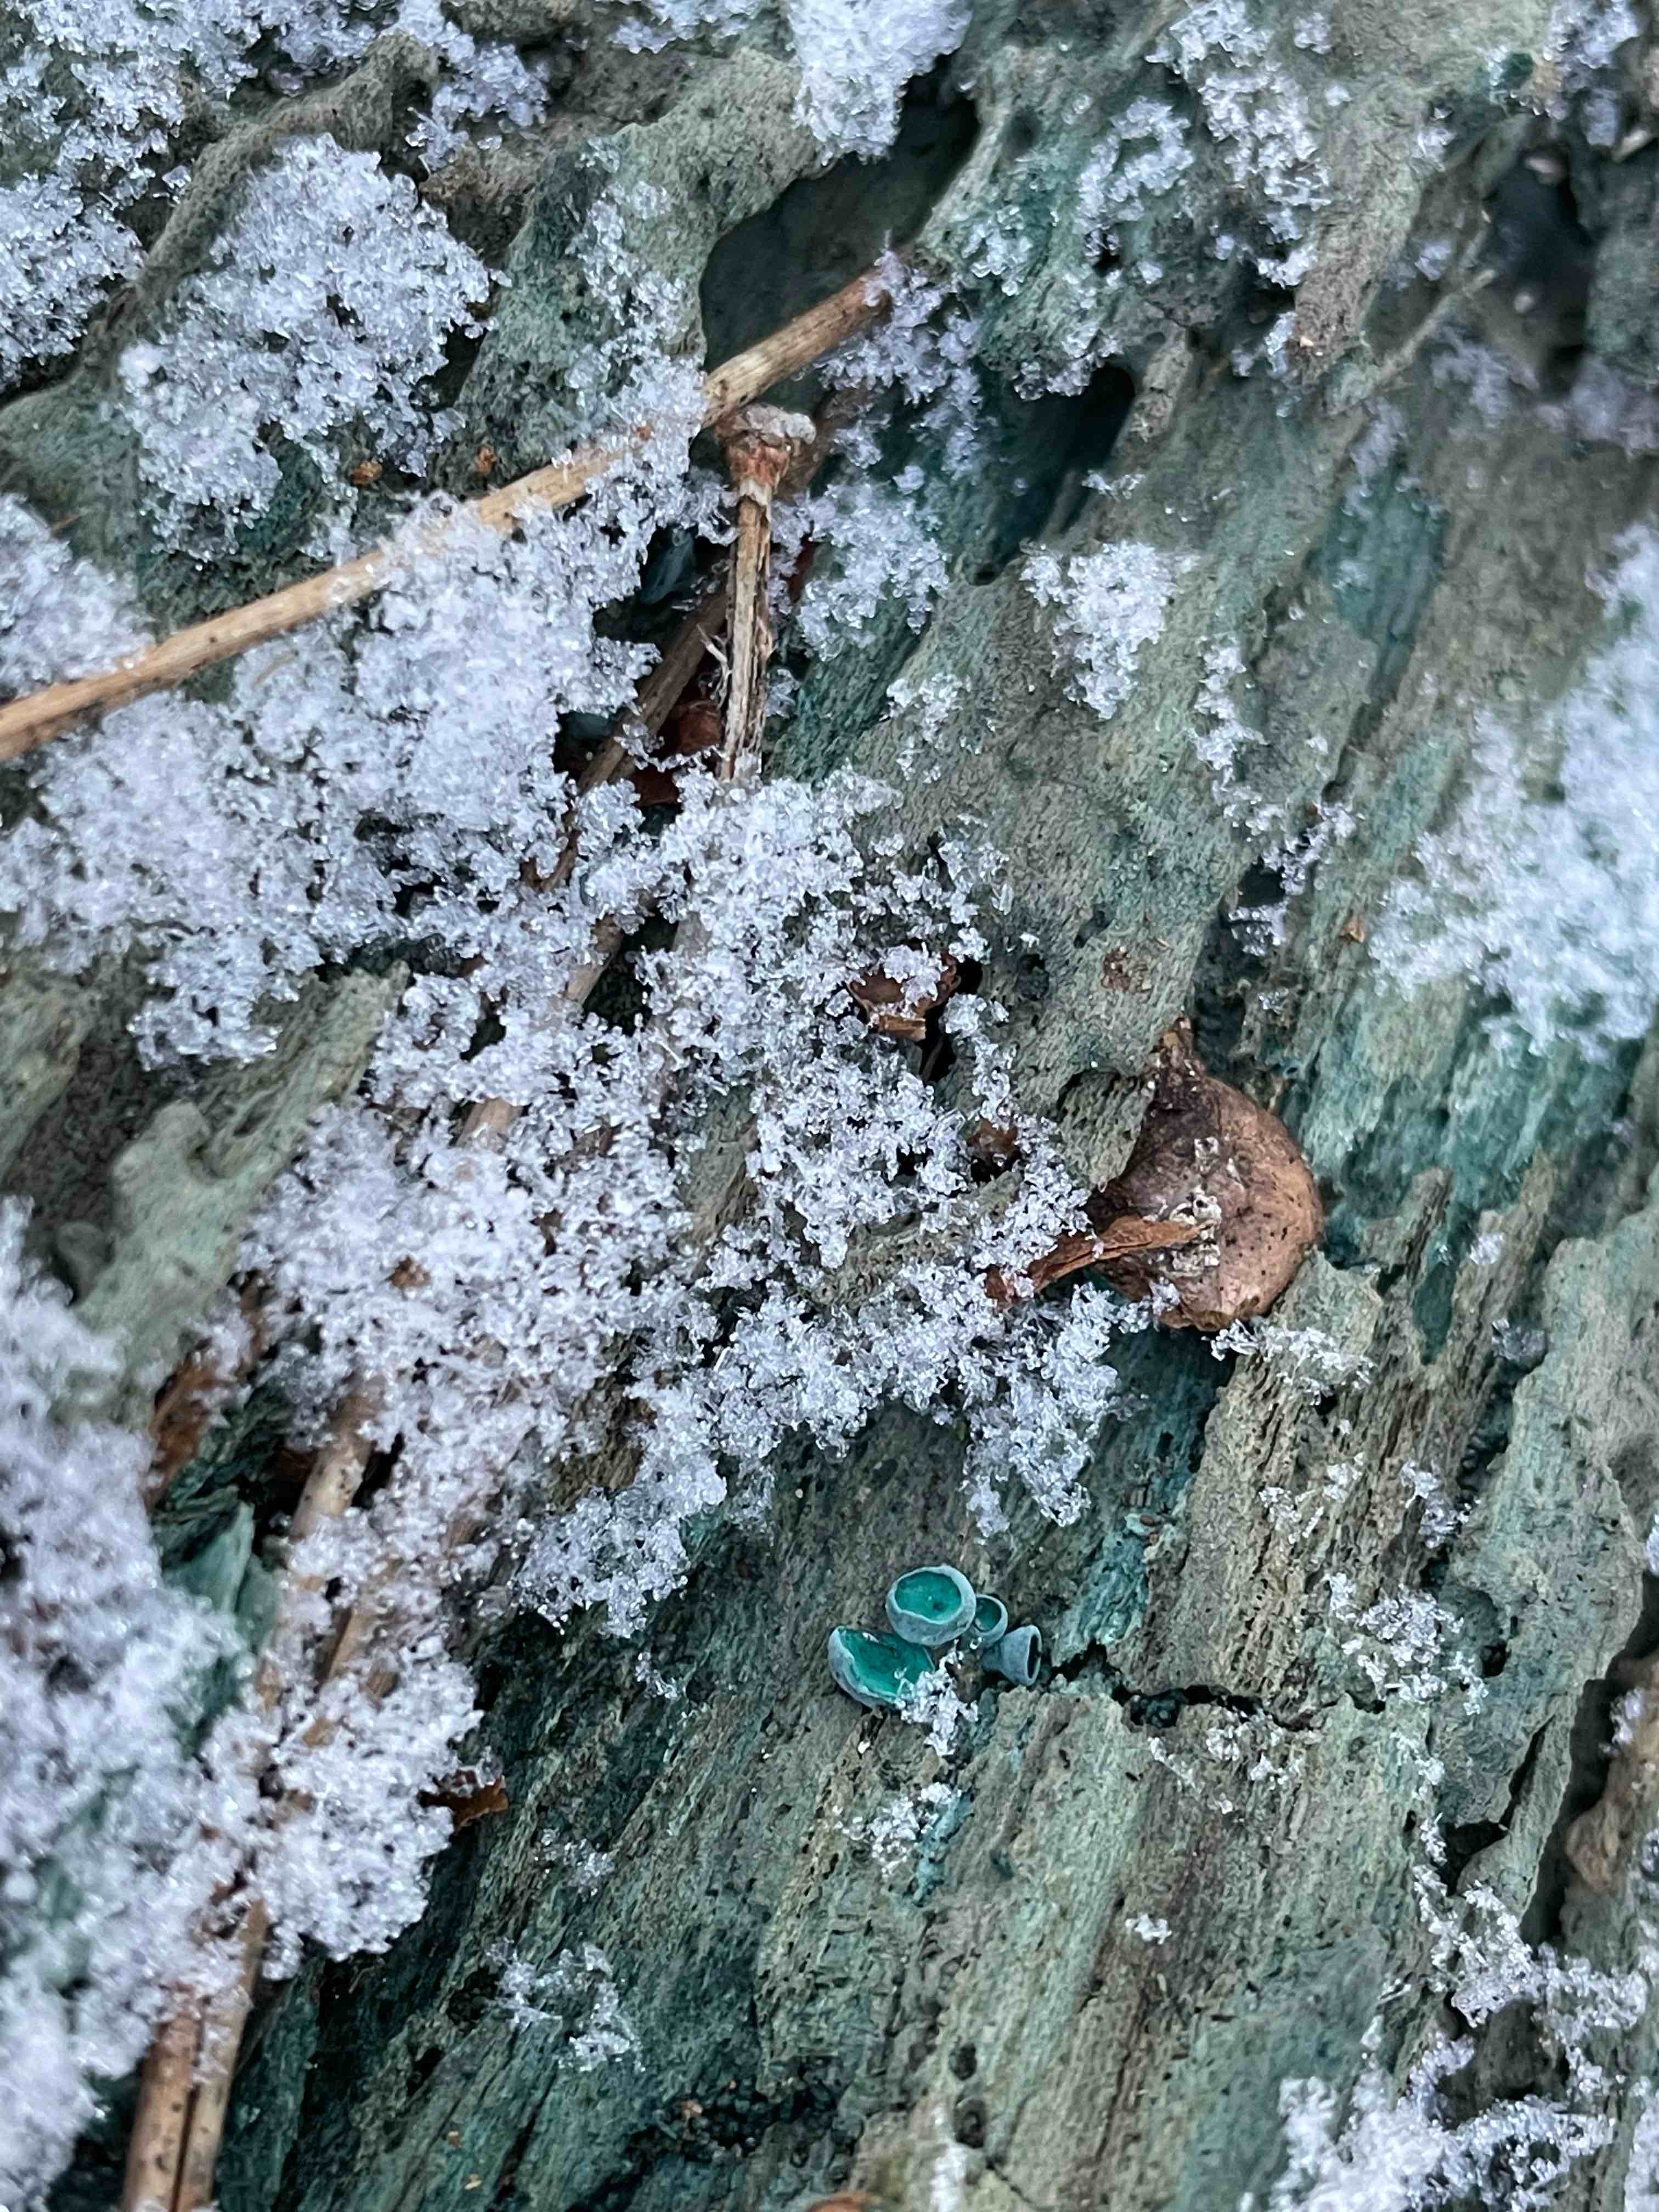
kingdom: Fungi
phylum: Ascomycota
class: Leotiomycetes
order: Helotiales
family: Chlorociboriaceae
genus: Chlorociboria
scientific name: Chlorociboria aeruginascens
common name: almindelig grønskive
